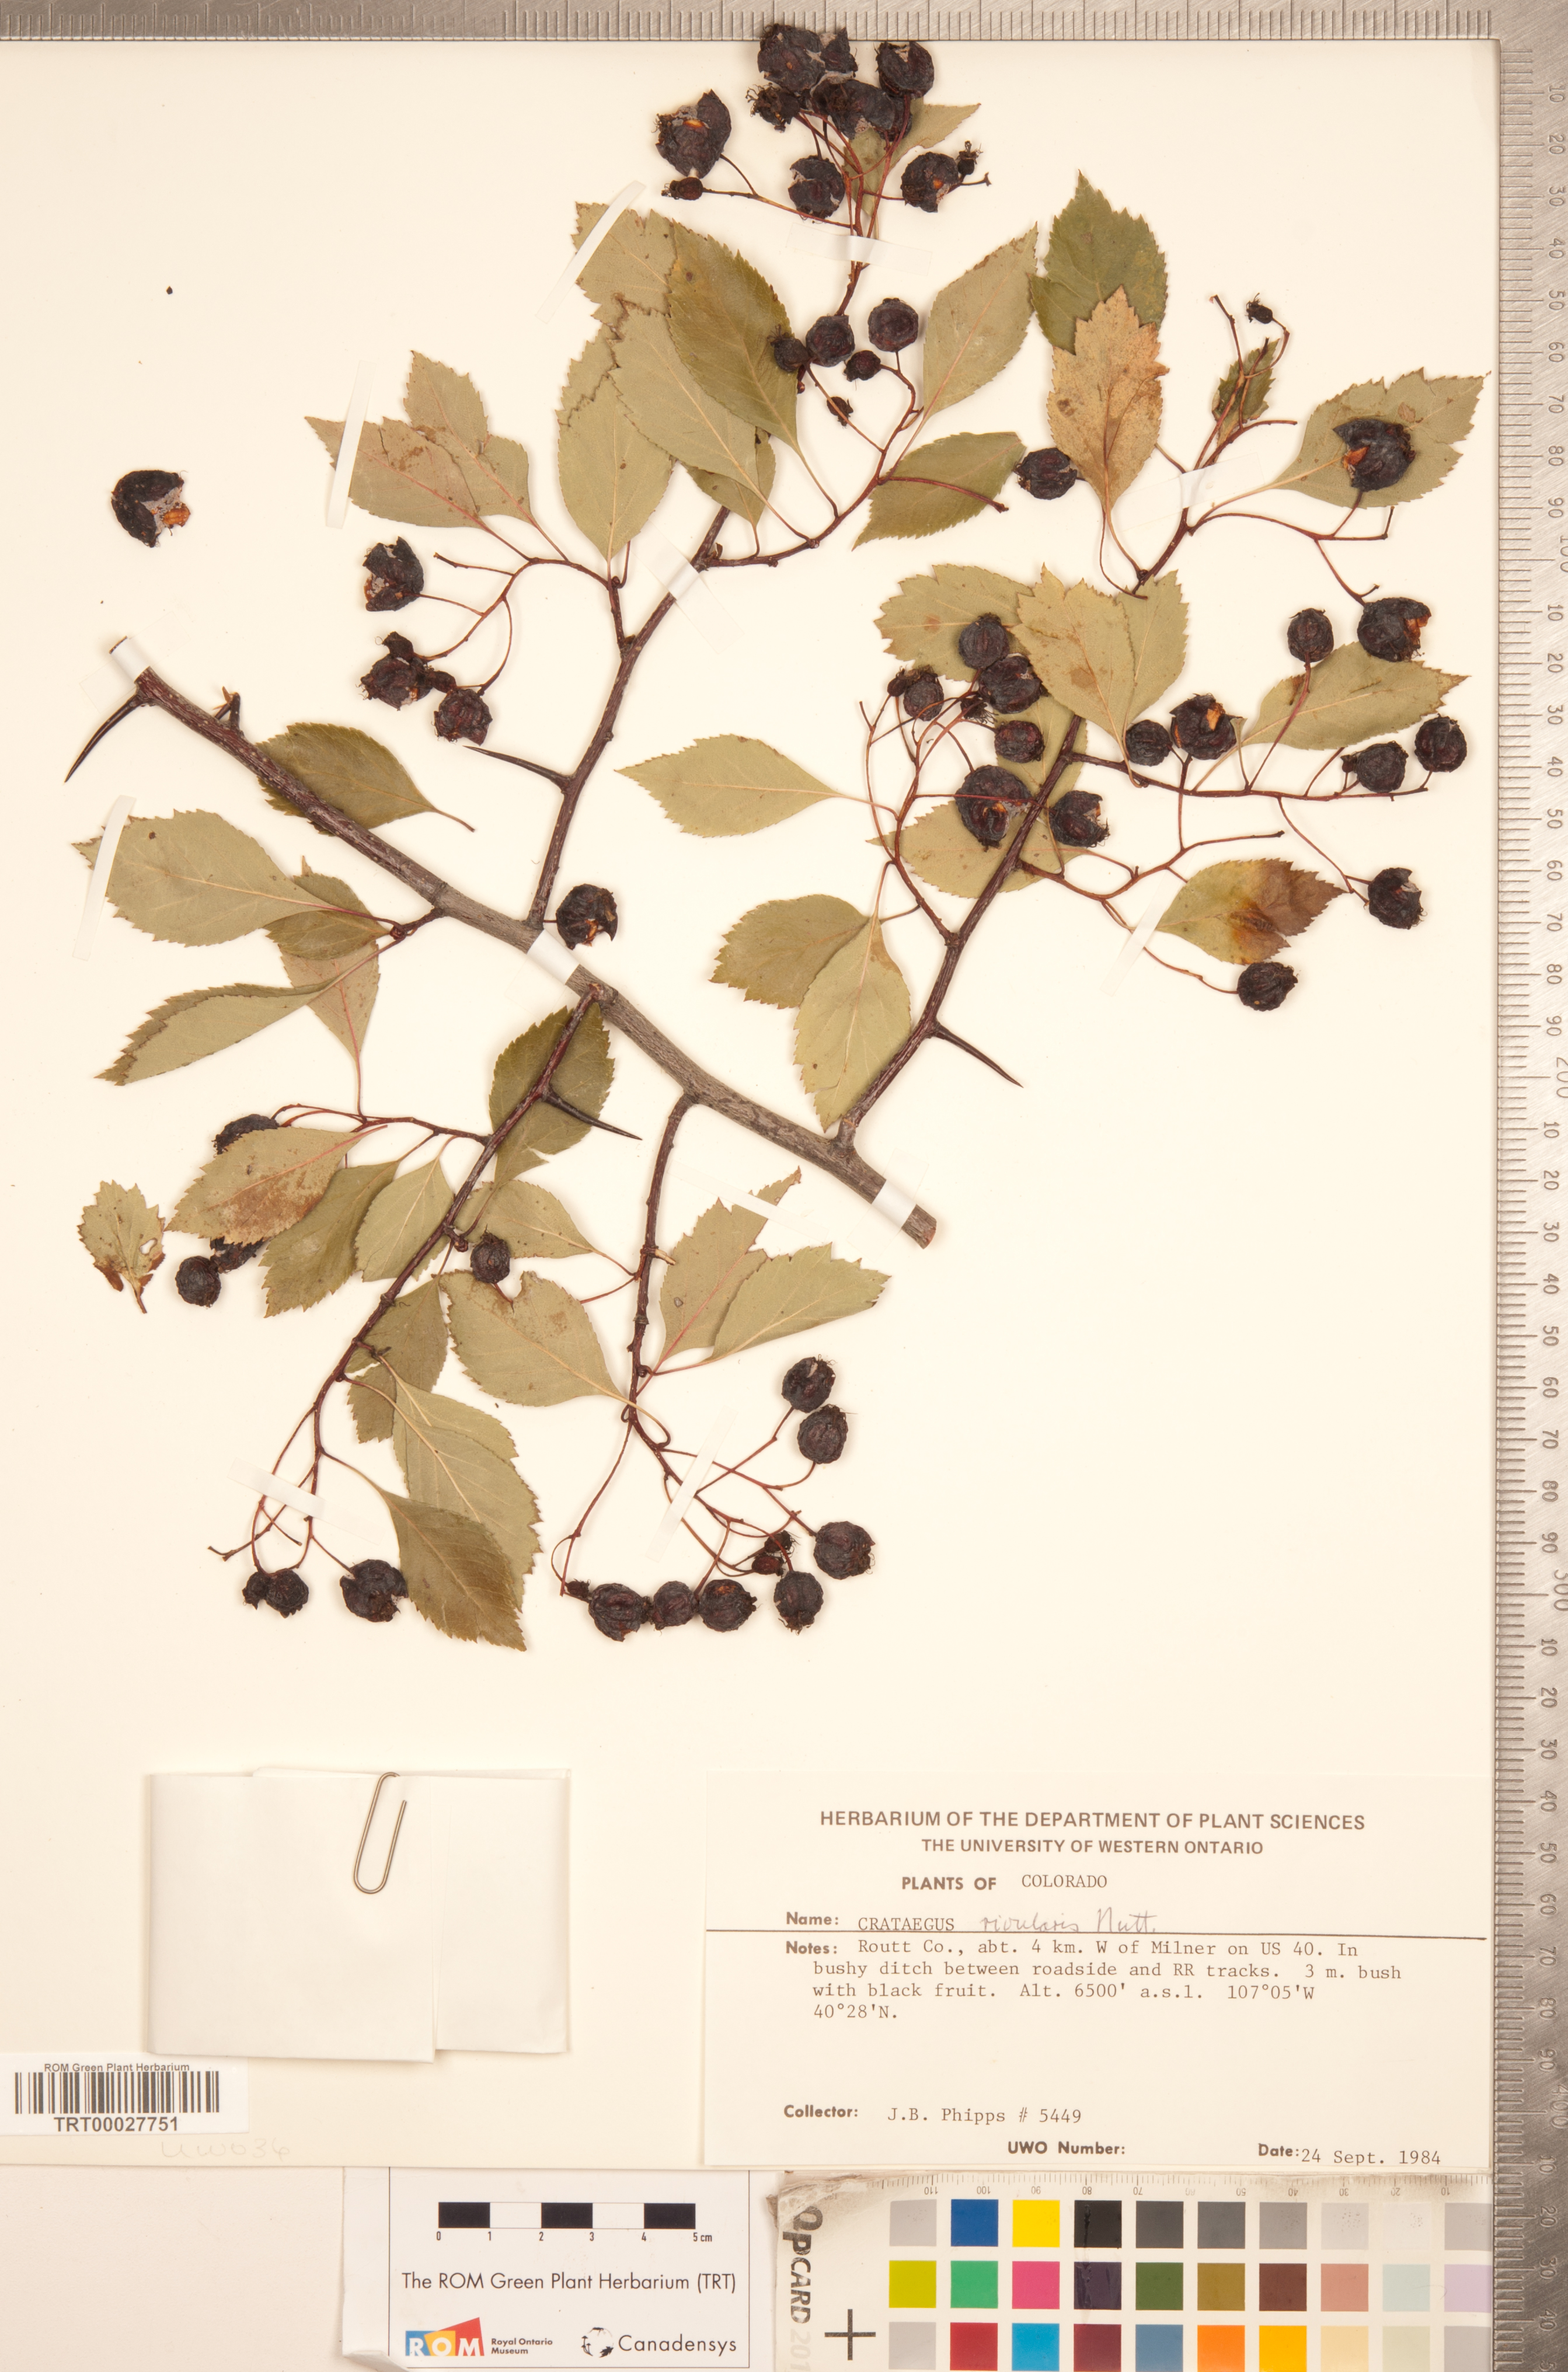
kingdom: Plantae
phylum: Tracheophyta
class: Magnoliopsida
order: Rosales
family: Rosaceae
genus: Crataegus
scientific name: Crataegus rivularis
